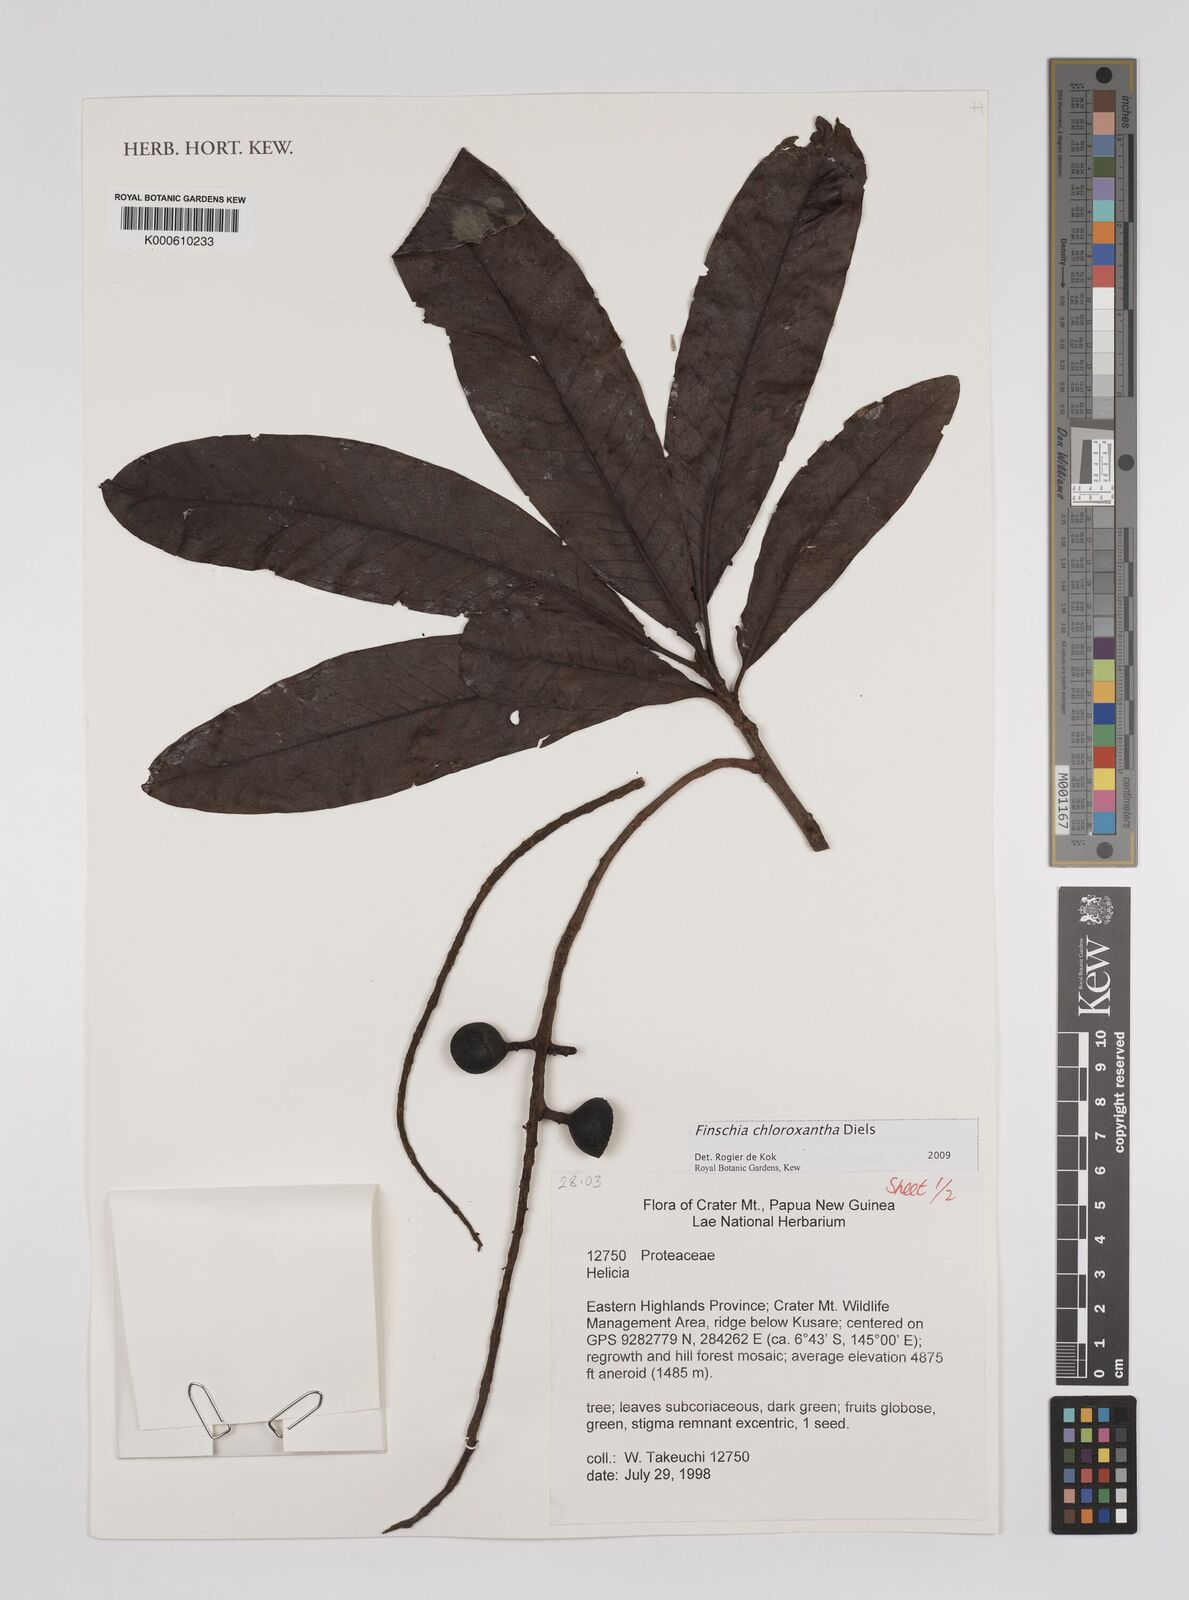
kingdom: Plantae
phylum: Tracheophyta
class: Magnoliopsida
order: Proteales
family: Proteaceae
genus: Finschia
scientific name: Finschia chloroxantha
